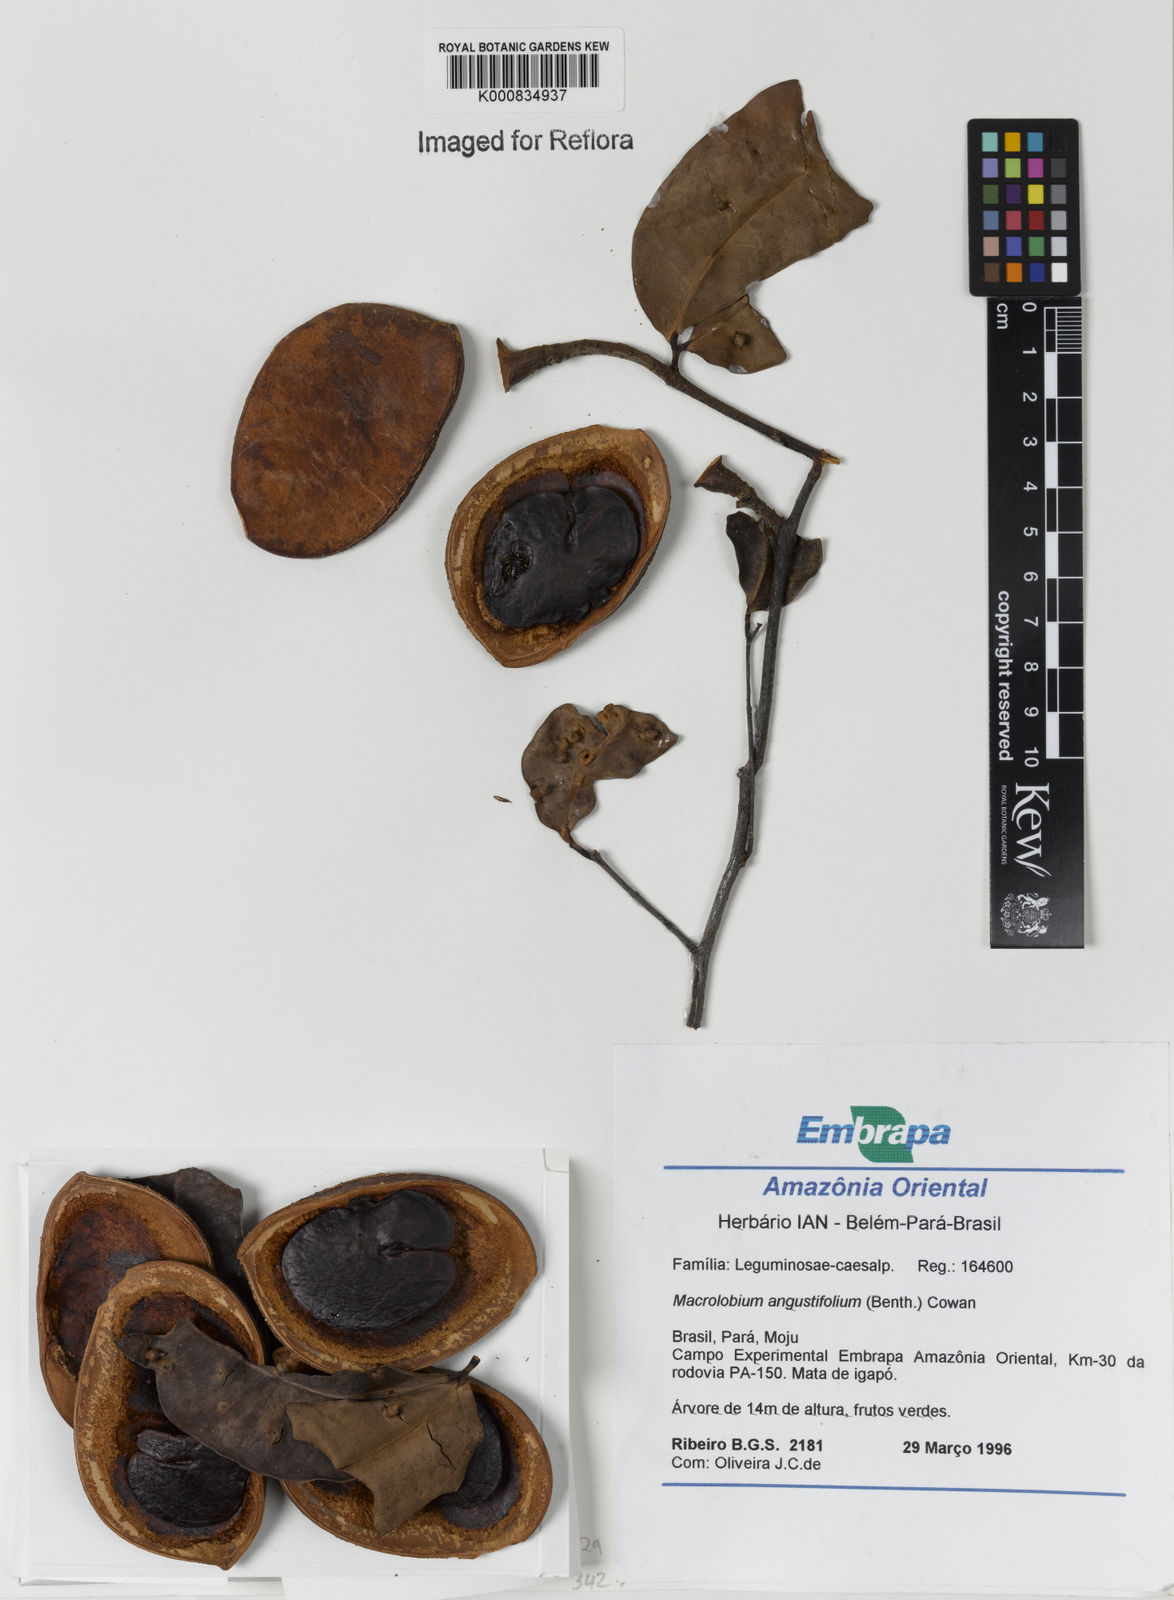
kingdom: Plantae
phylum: Tracheophyta
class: Magnoliopsida
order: Fabales
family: Fabaceae
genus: Macrolobium
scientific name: Macrolobium angustifolium
